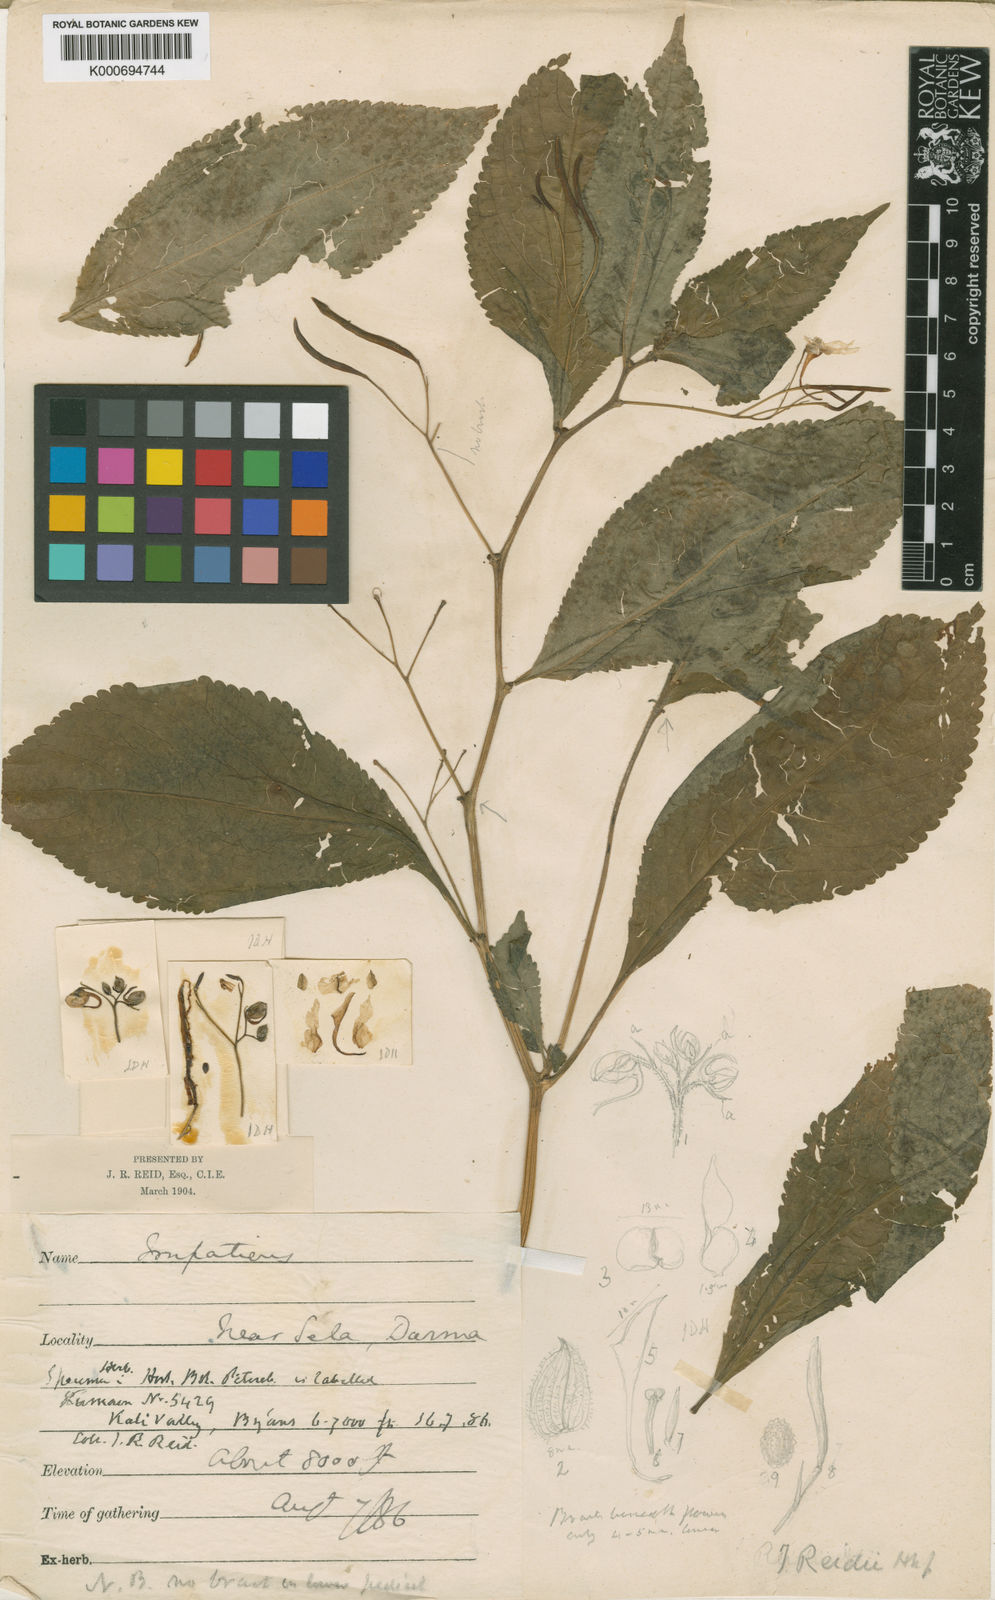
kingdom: Plantae
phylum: Tracheophyta
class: Magnoliopsida
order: Ericales
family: Balsaminaceae
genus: Impatiens
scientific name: Impatiens reidii
